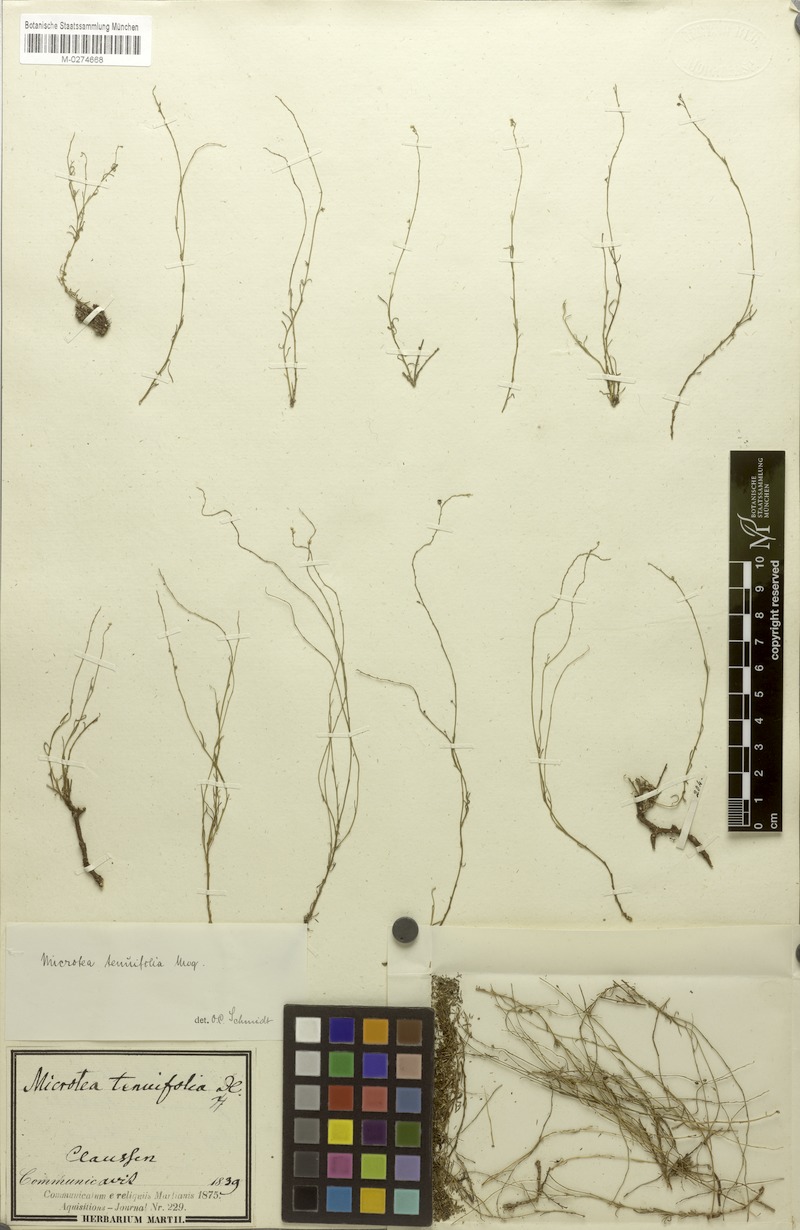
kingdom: Plantae
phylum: Tracheophyta
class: Magnoliopsida
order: Caryophyllales
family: Microteaceae
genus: Microtea
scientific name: Microtea tenuifolia
